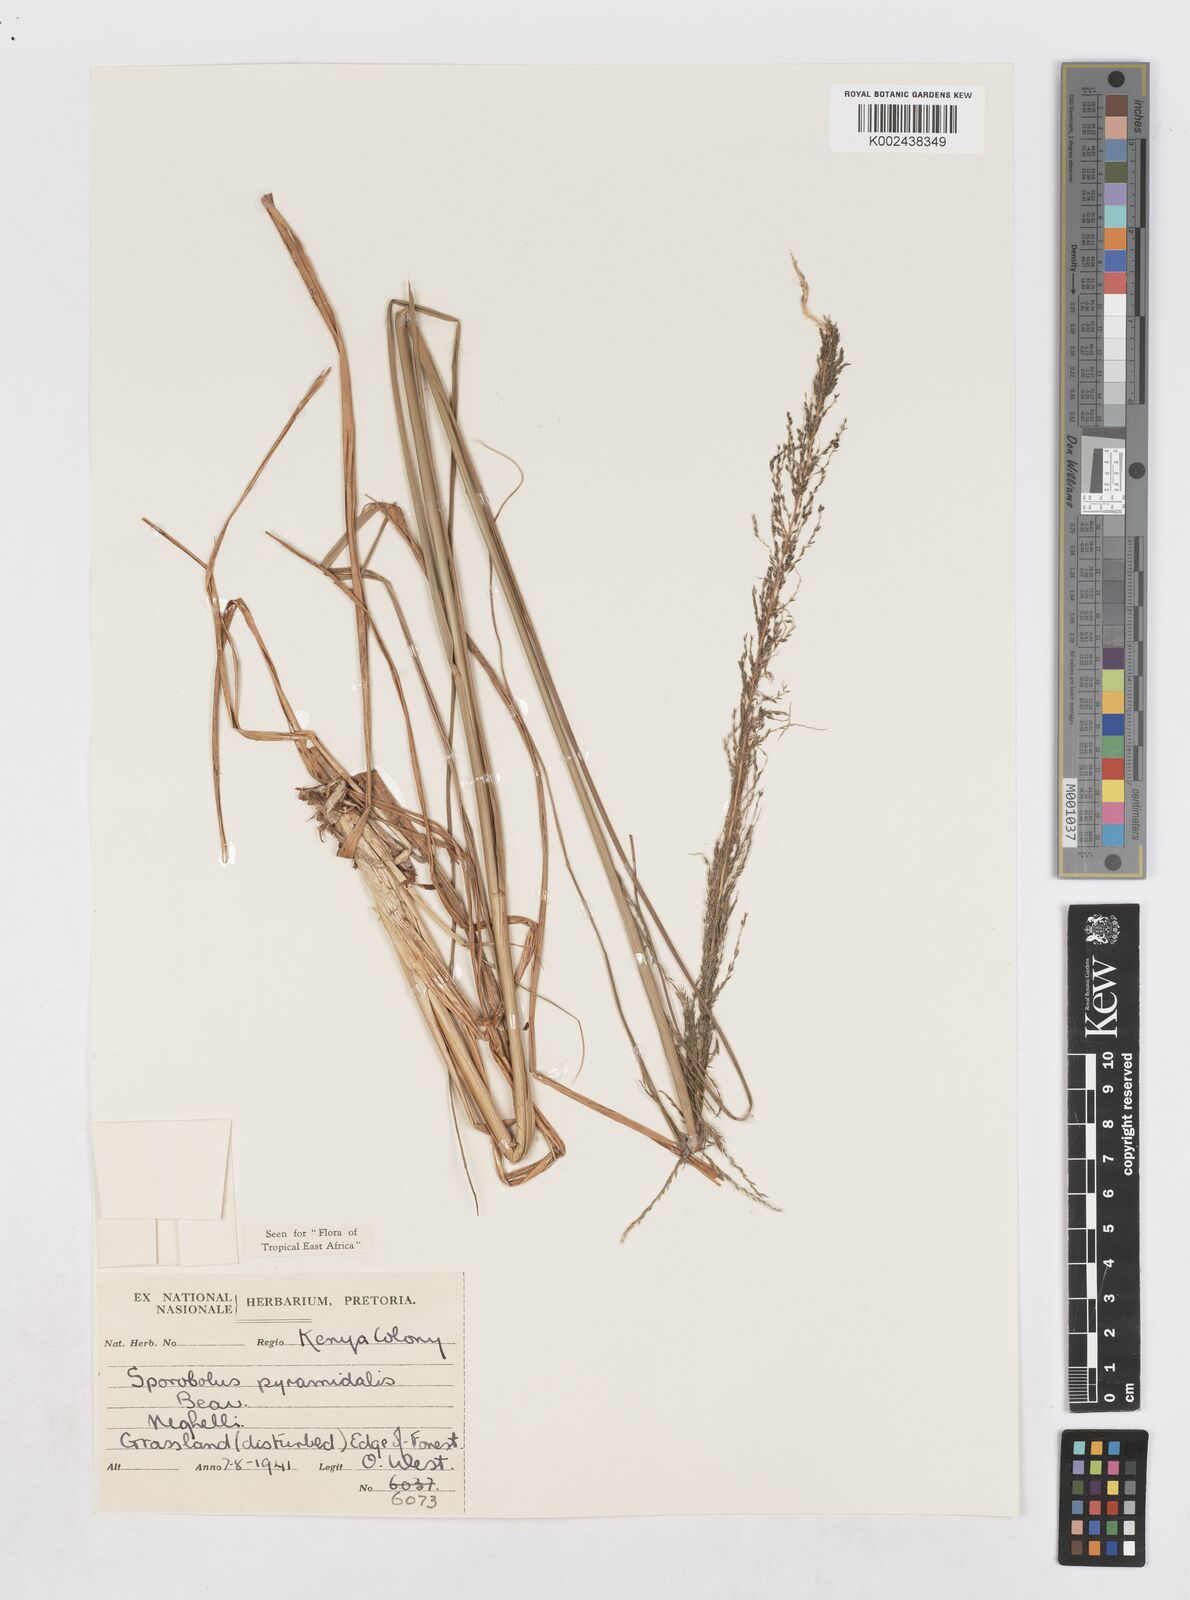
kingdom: Plantae
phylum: Tracheophyta
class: Liliopsida
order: Poales
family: Poaceae
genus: Sporobolus
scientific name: Sporobolus pyramidalis
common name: West indian dropseed
